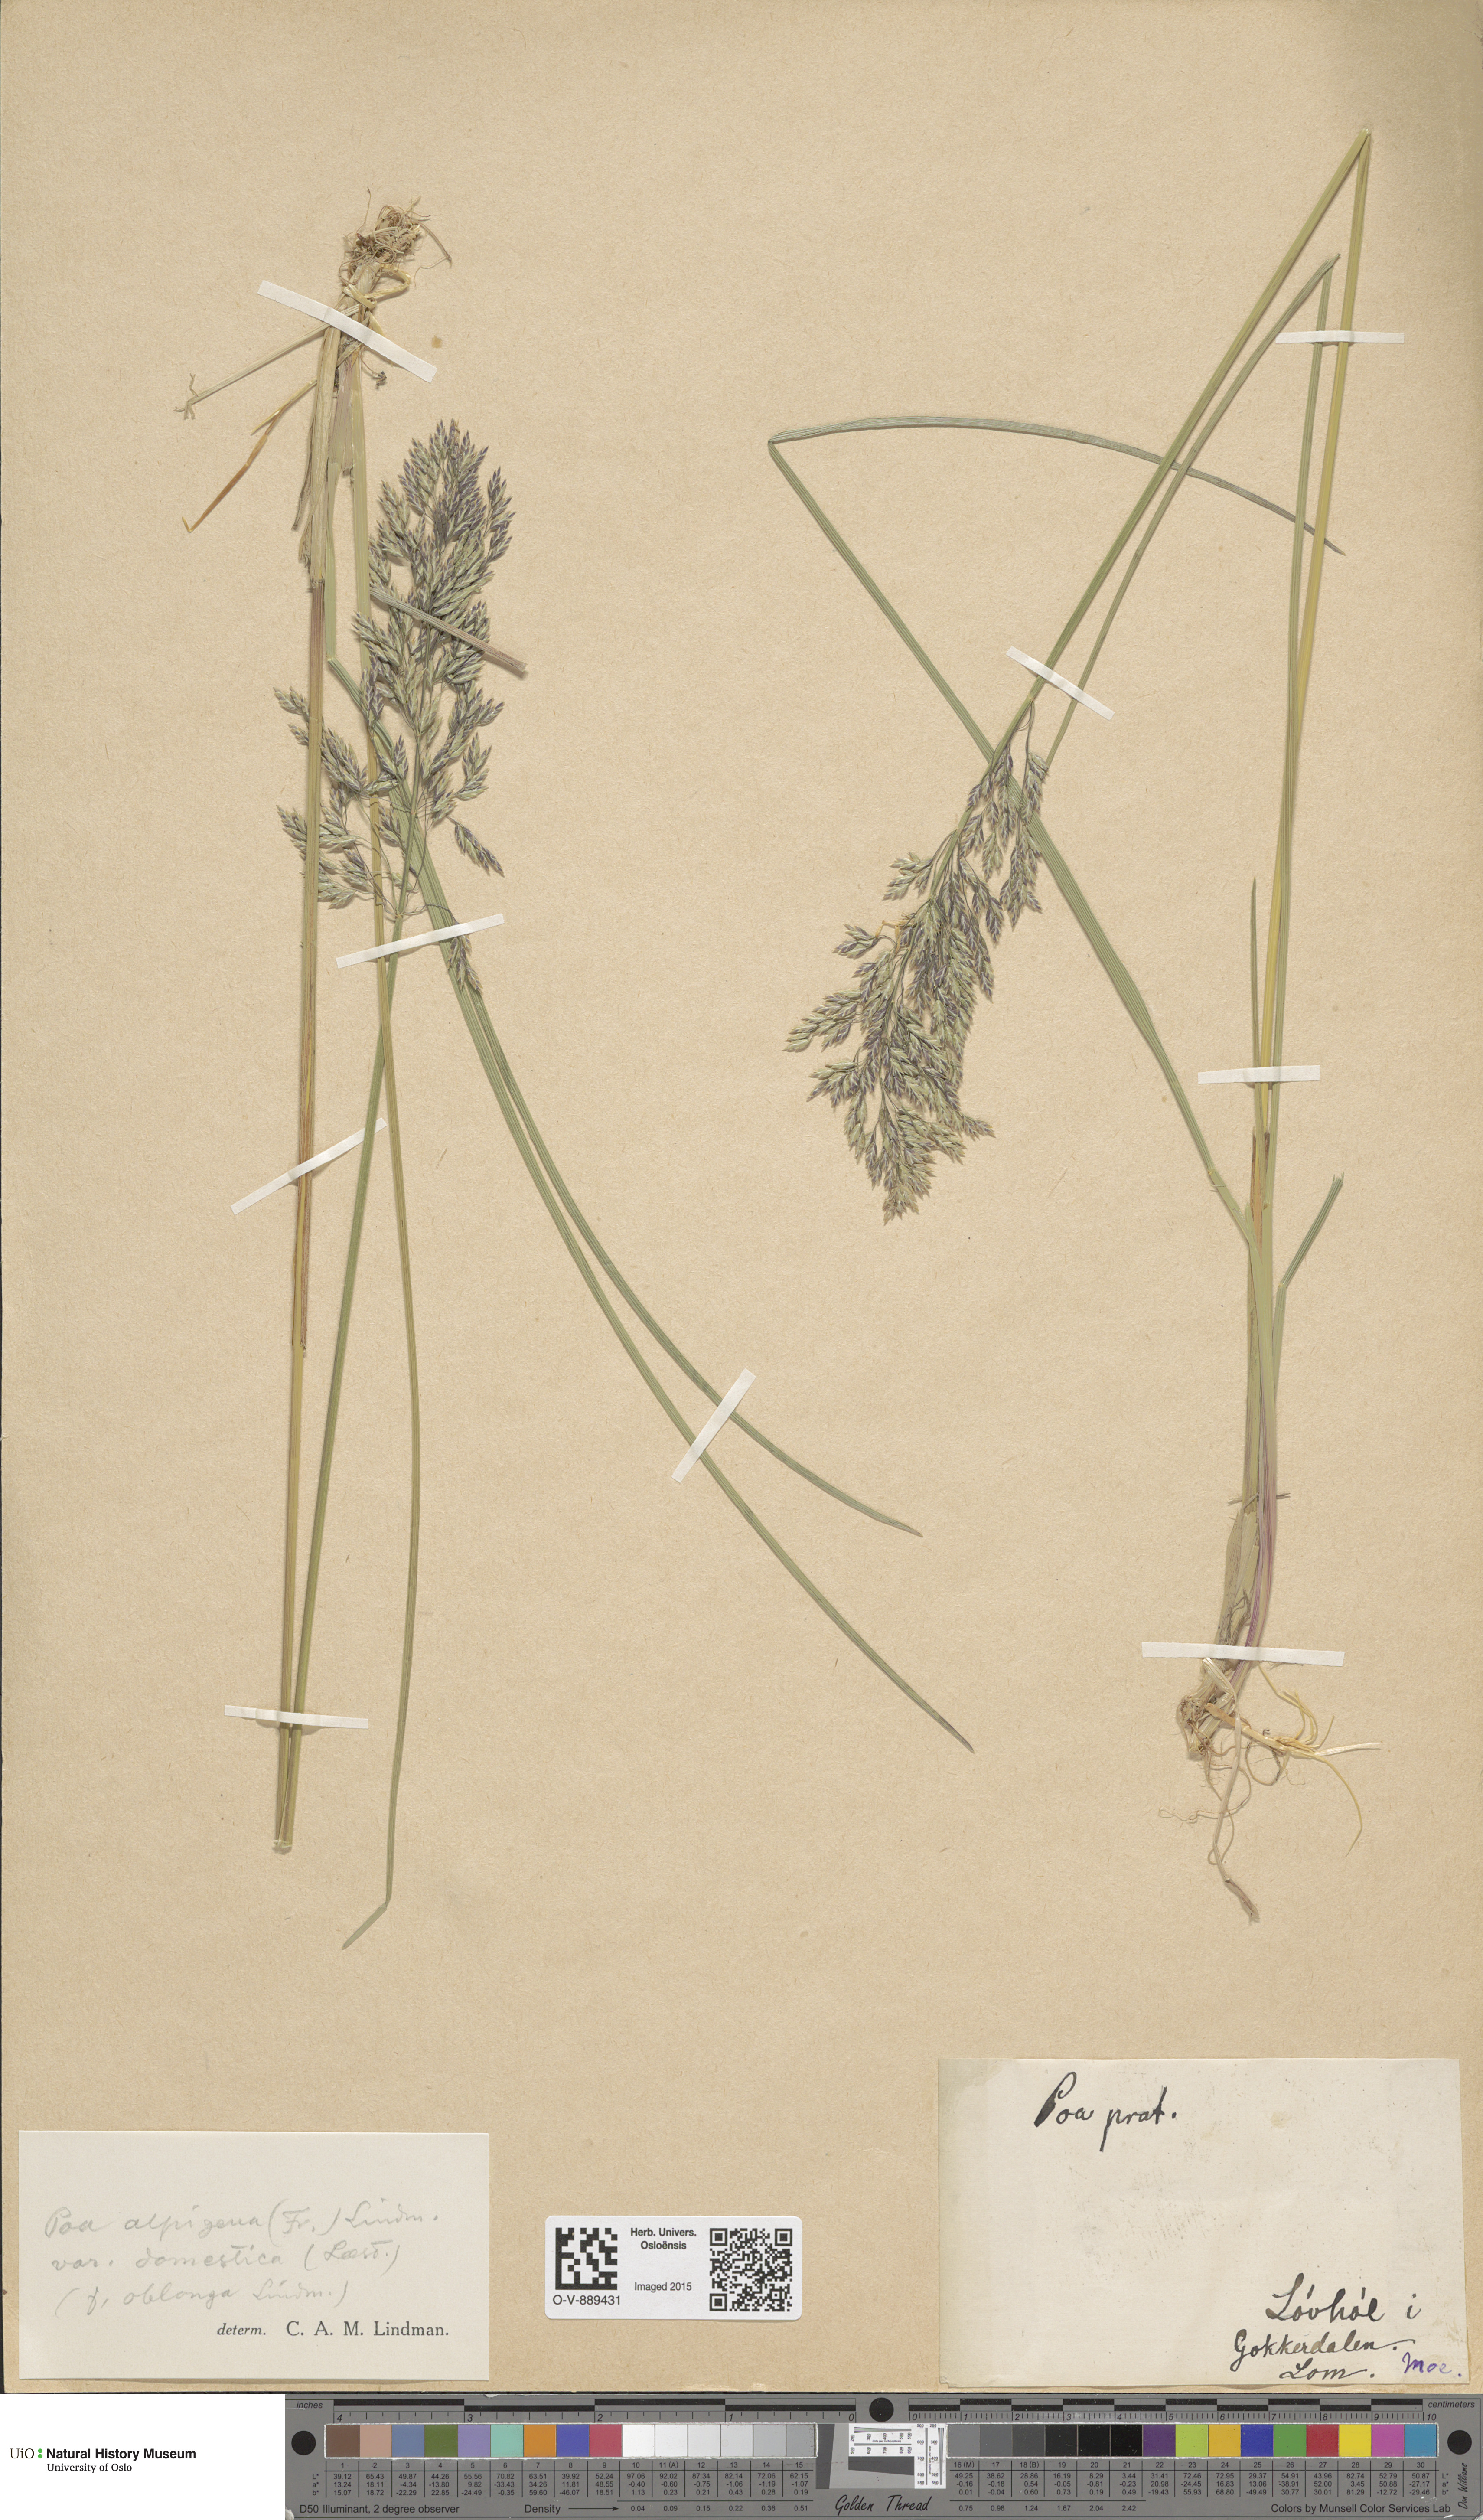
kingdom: Plantae
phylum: Tracheophyta
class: Liliopsida
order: Poales
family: Poaceae
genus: Poa
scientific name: Poa pratensis
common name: Kentucky bluegrass
